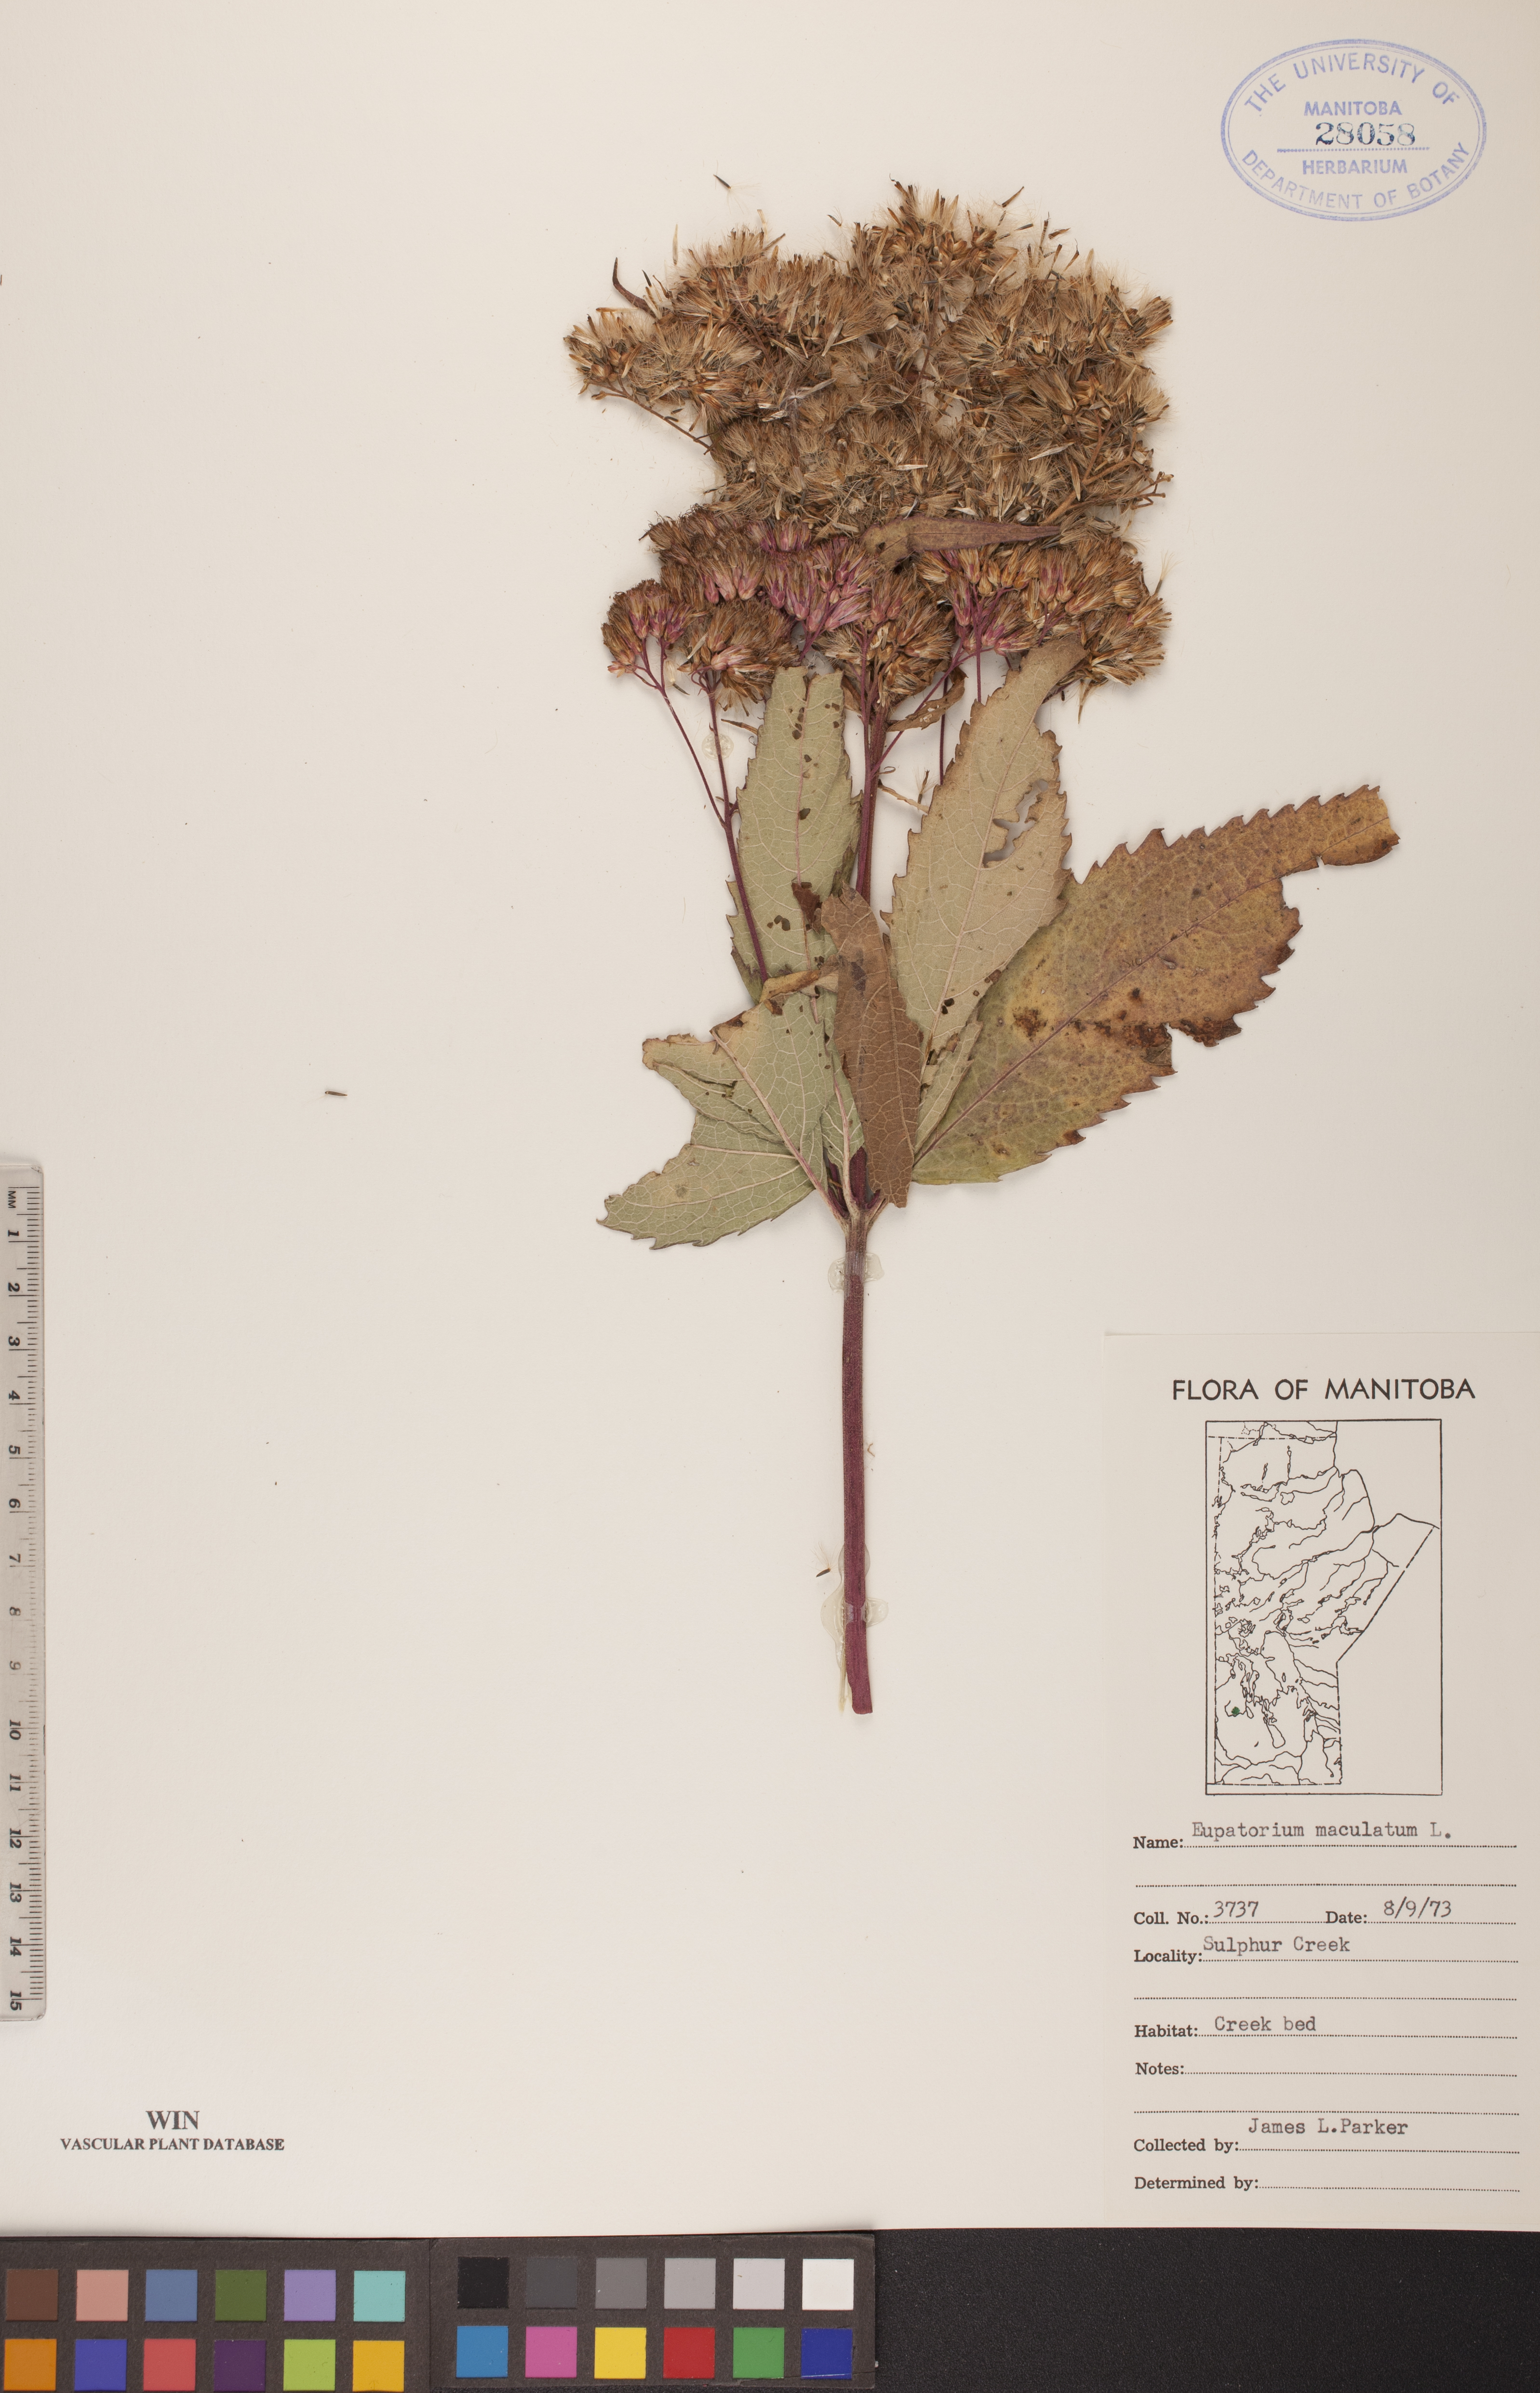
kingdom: Plantae
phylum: Tracheophyta
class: Magnoliopsida
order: Asterales
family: Asteraceae
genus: Eutrochium
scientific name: Eutrochium maculatum
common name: Spotted joe pye weed
